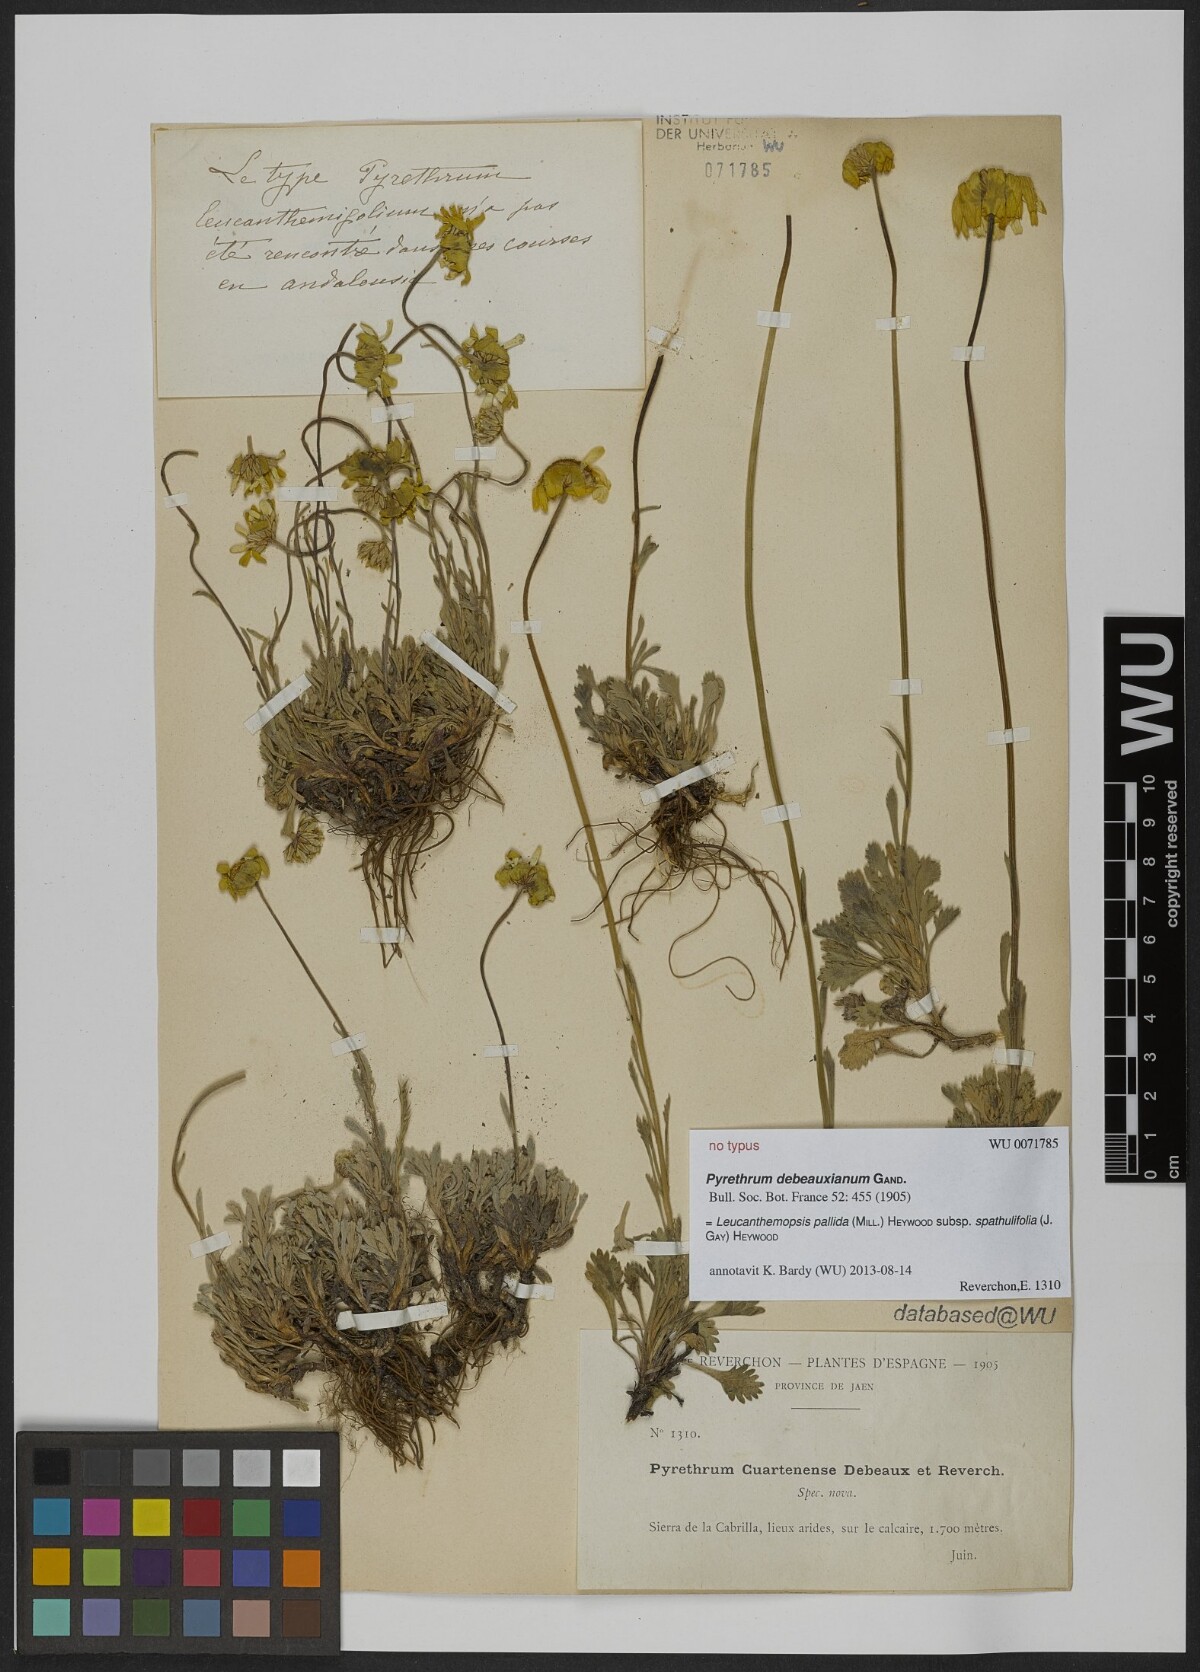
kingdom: Plantae
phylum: Tracheophyta
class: Magnoliopsida
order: Asterales
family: Asteraceae
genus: Castrilanthemum
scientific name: Castrilanthemum debeauxii
